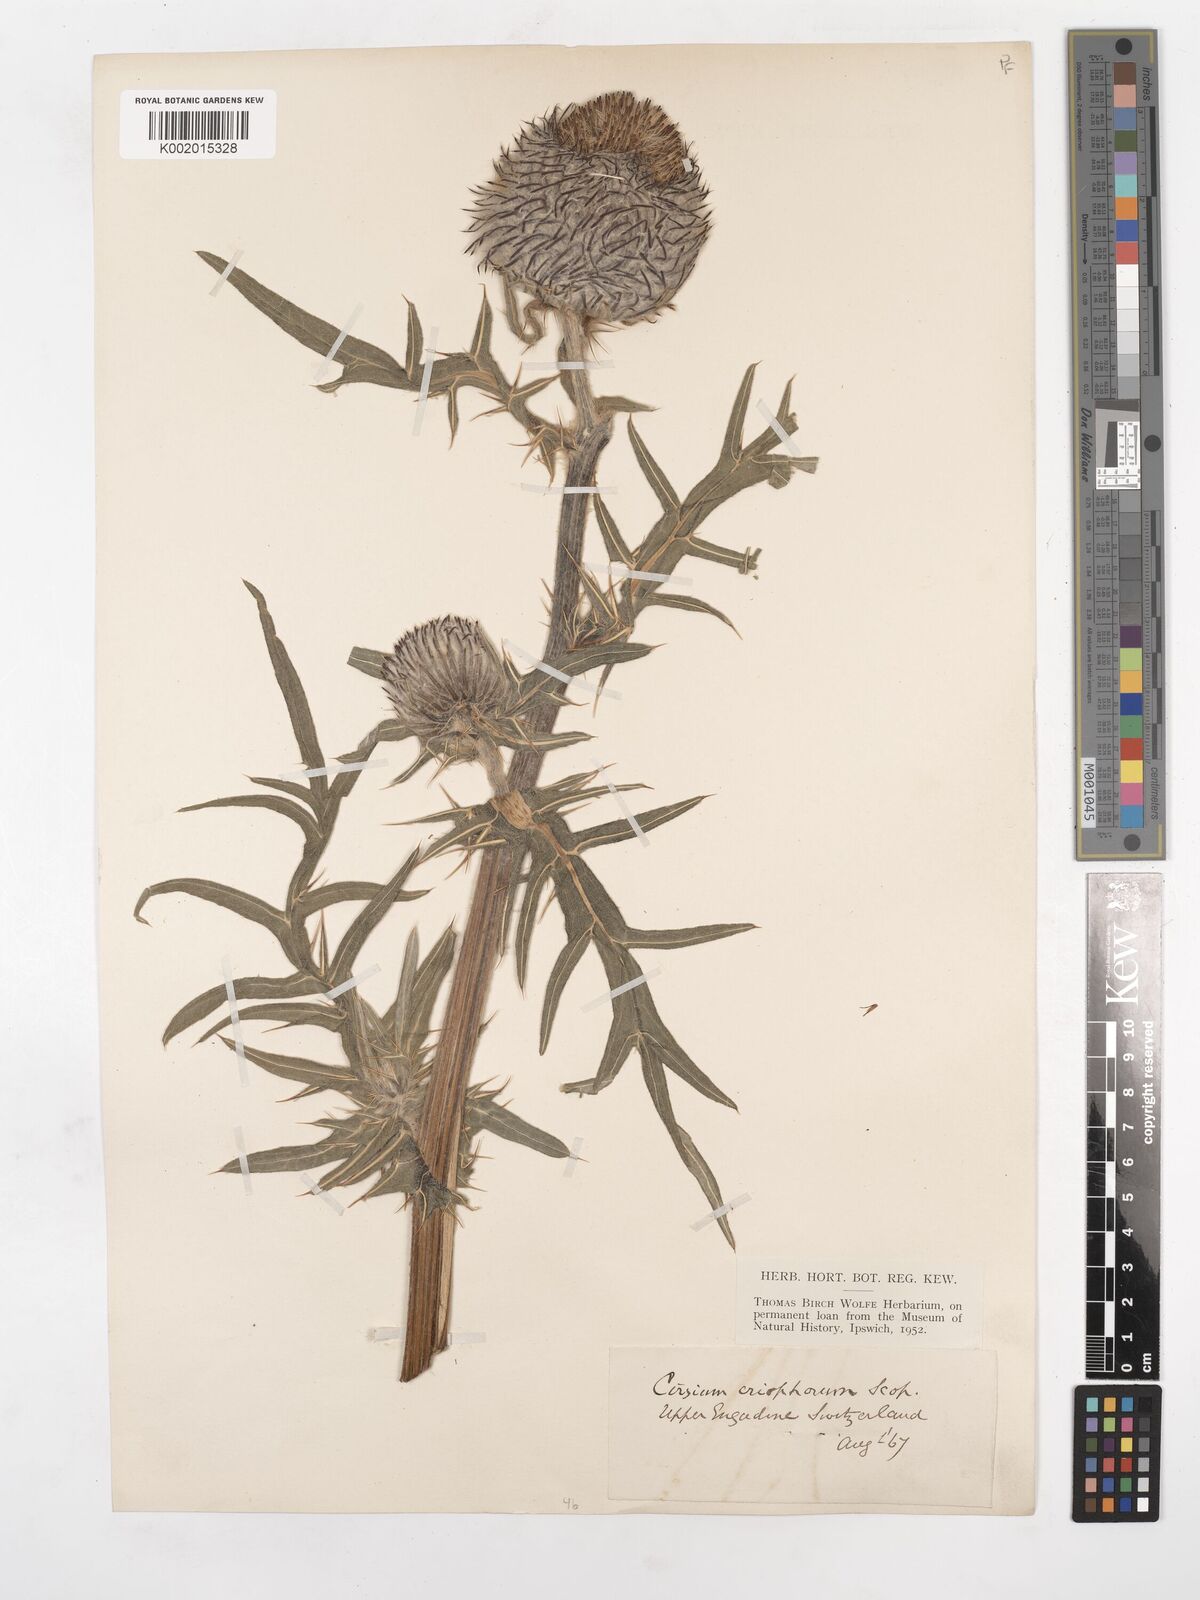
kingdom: Plantae
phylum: Tracheophyta
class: Magnoliopsida
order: Asterales
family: Asteraceae
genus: Lophiolepis
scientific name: Lophiolepis eriophora
